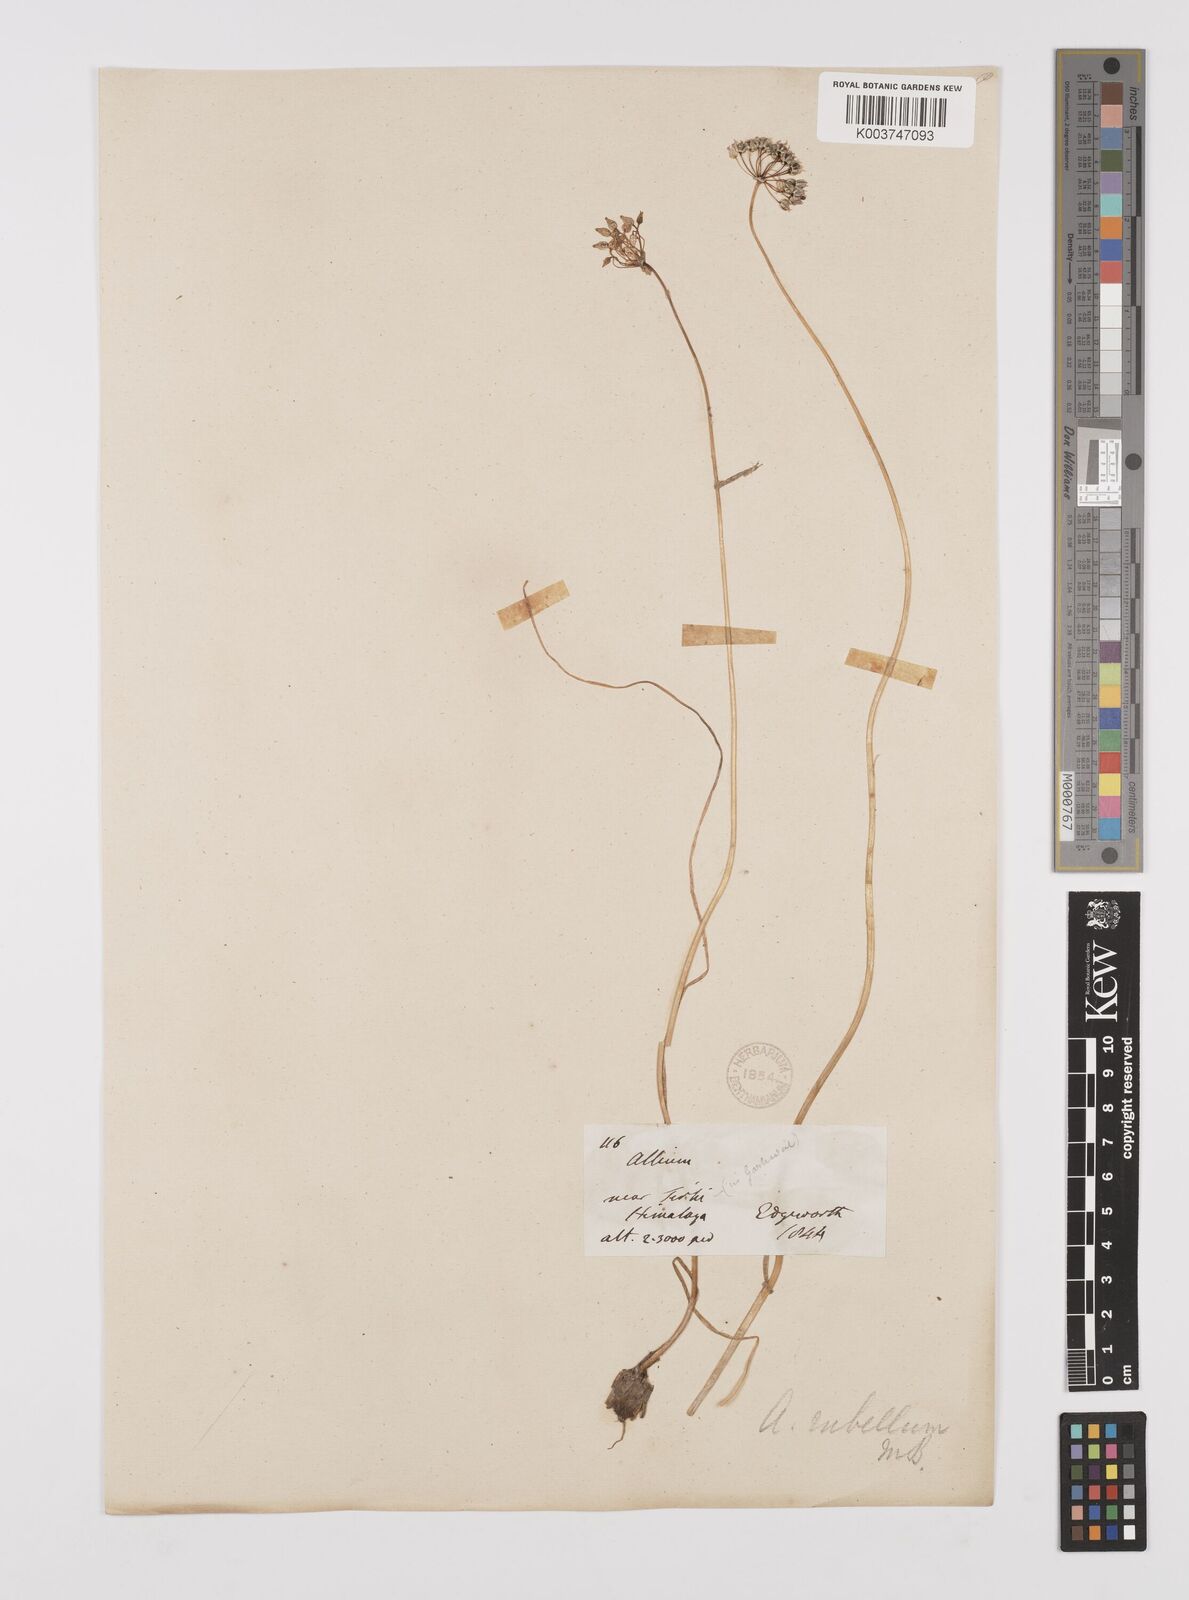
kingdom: Plantae
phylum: Tracheophyta
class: Liliopsida
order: Asparagales
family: Amaryllidaceae
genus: Allium
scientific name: Allium caesioides
